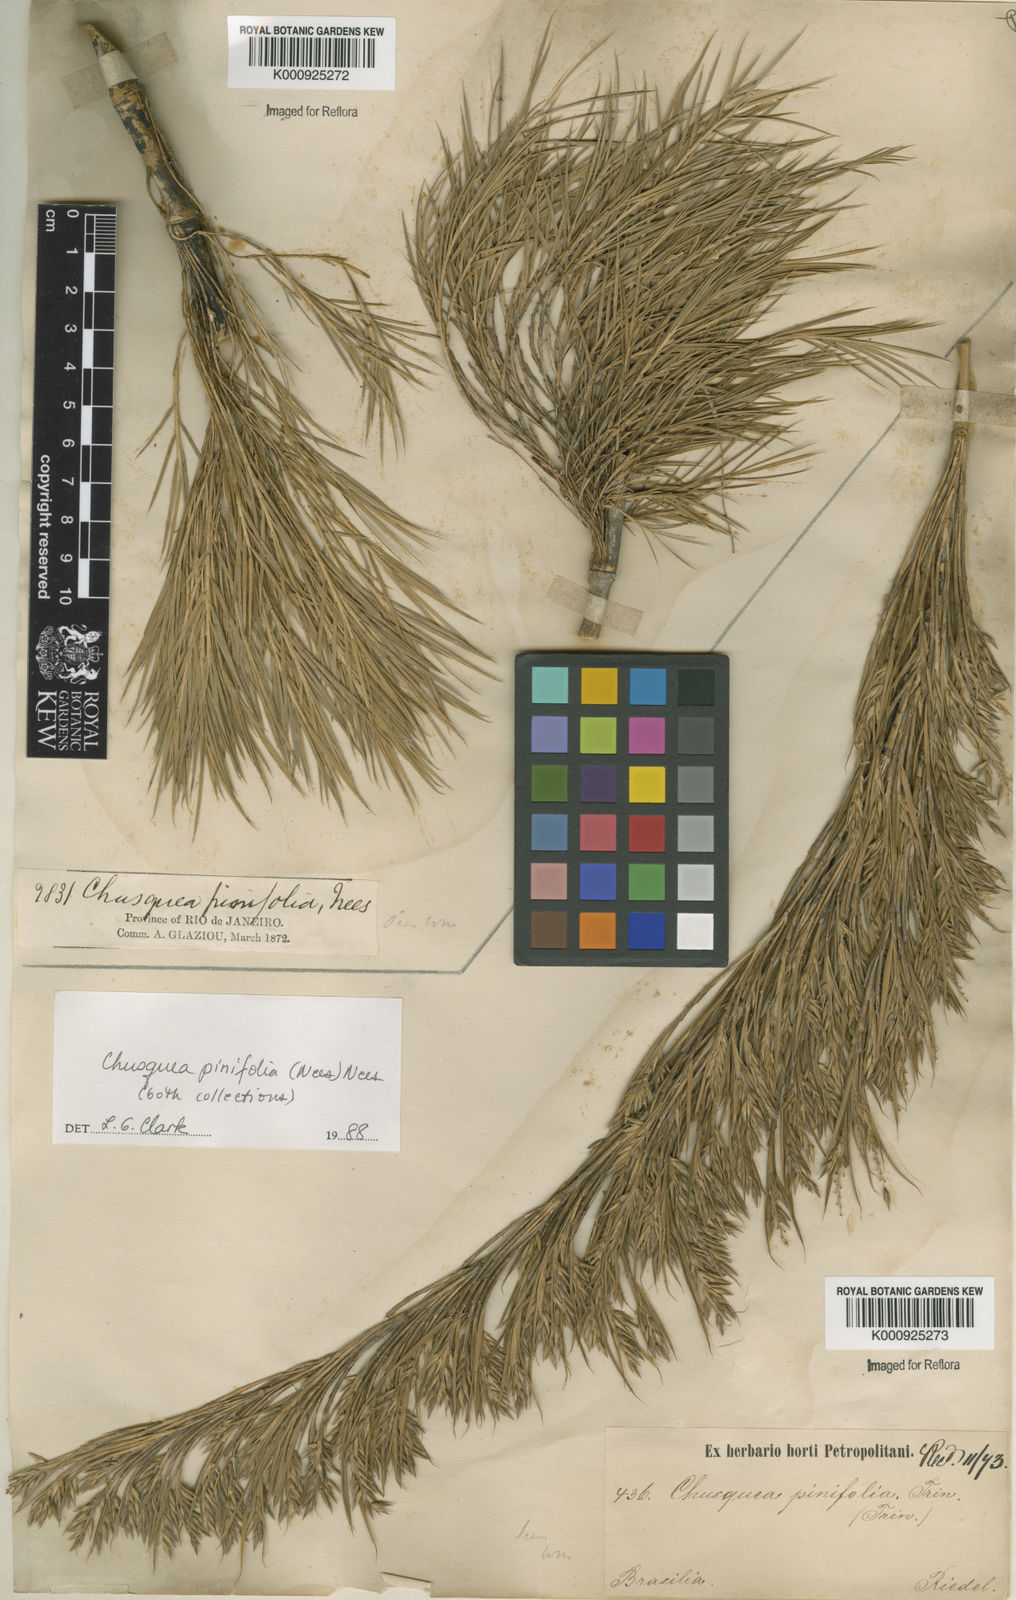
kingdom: Plantae
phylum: Tracheophyta
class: Liliopsida
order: Poales
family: Poaceae
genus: Chusquea
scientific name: Chusquea pinifolia
